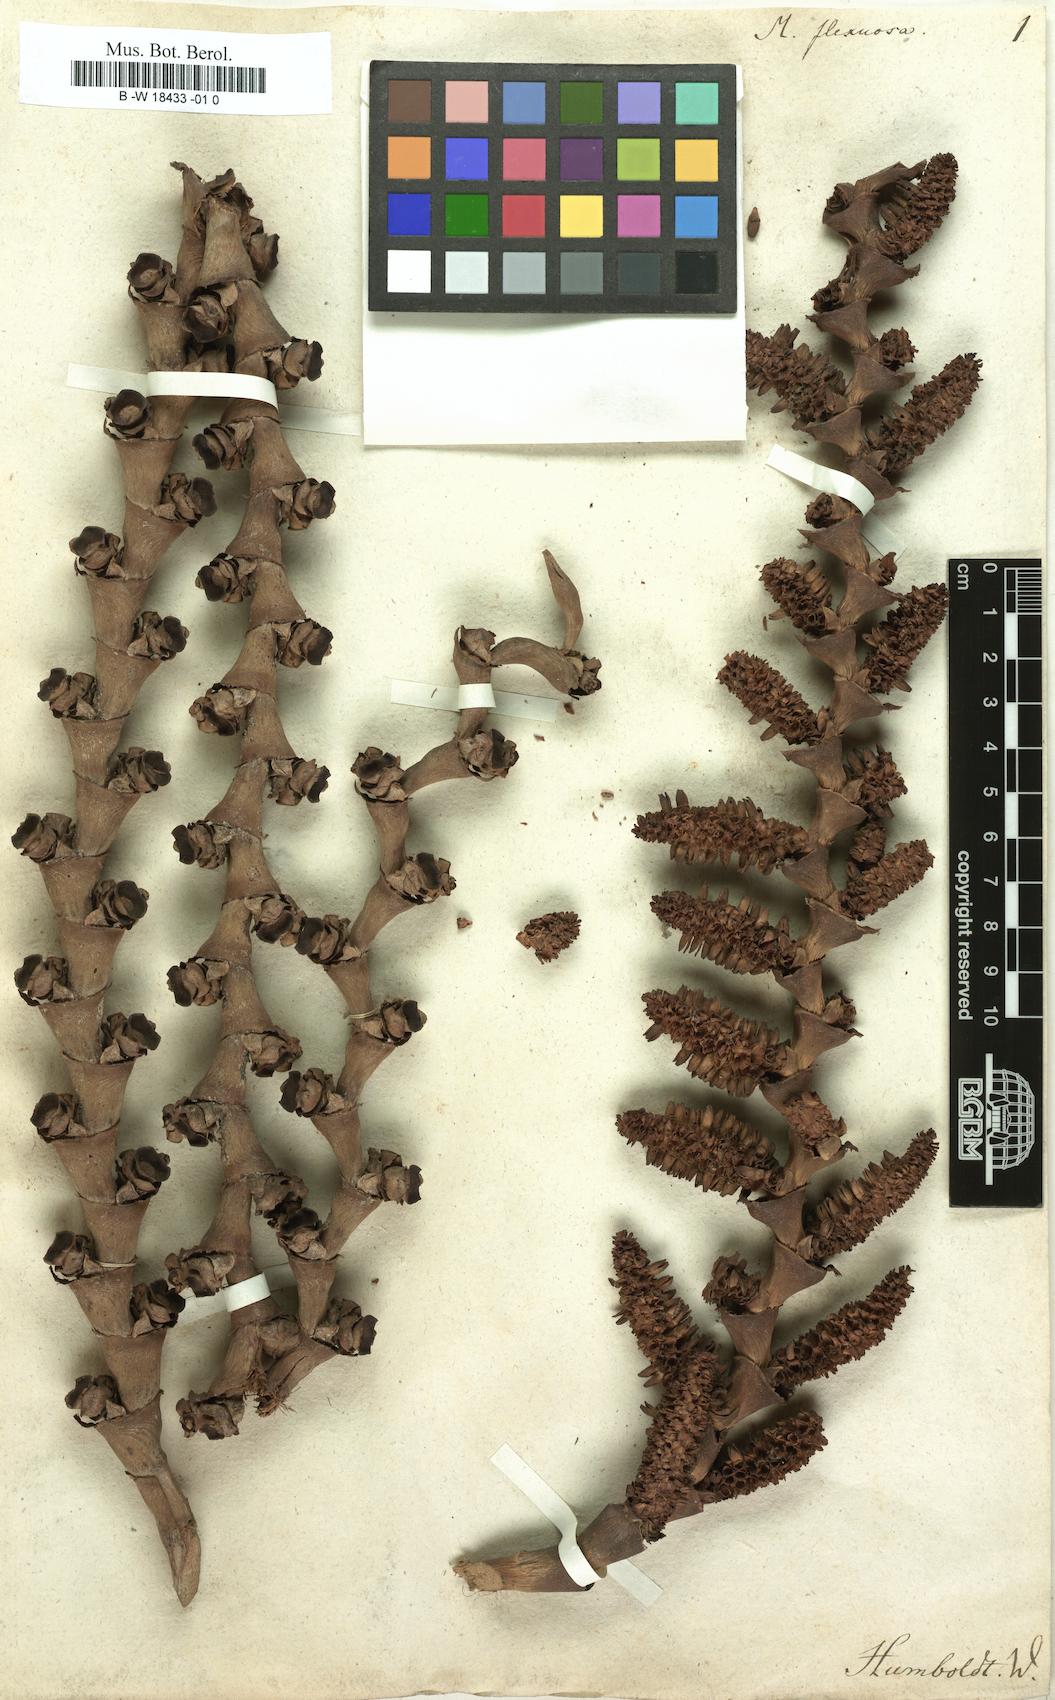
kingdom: Plantae
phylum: Tracheophyta
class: Liliopsida
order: Arecales
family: Arecaceae
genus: Mauritia
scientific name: Mauritia flexuosa
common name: Tree-of-life
